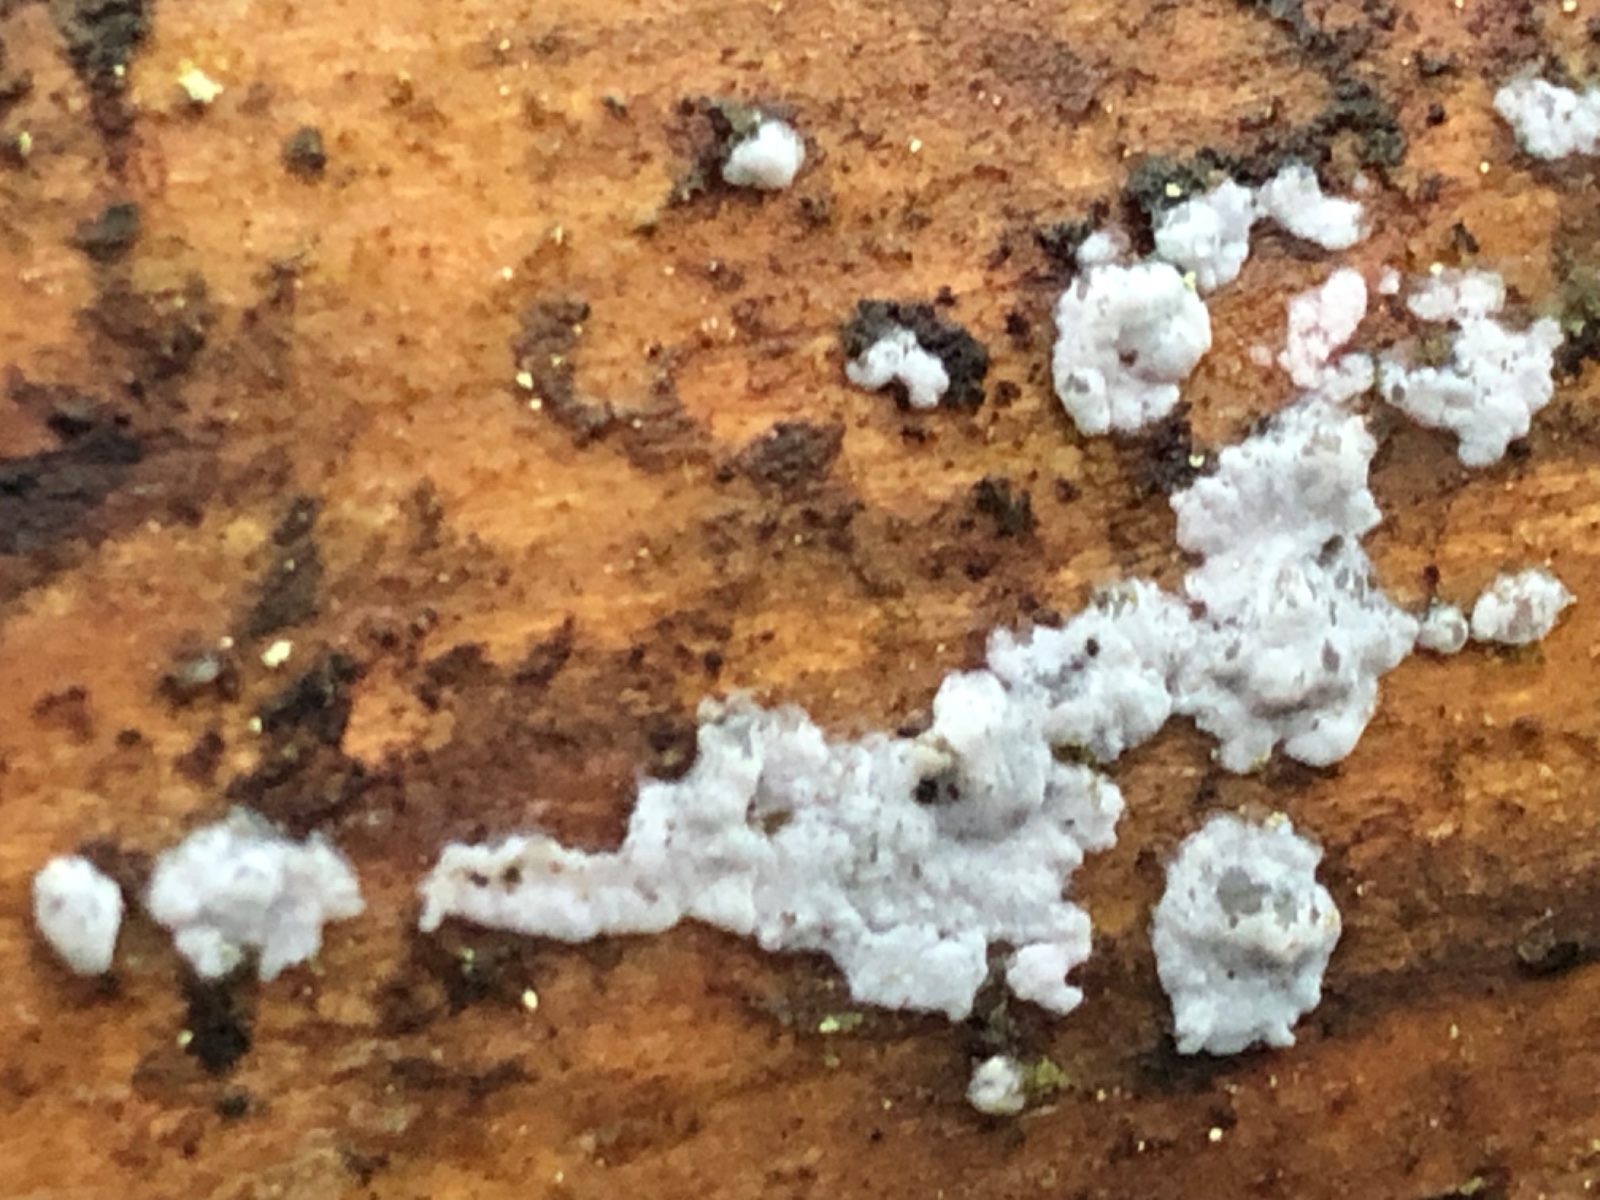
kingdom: Fungi
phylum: Basidiomycota
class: Agaricomycetes
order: Sebacinales
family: Sebacinaceae
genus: Sebacina
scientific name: Sebacina grisea
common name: blågrå bævrehinde
